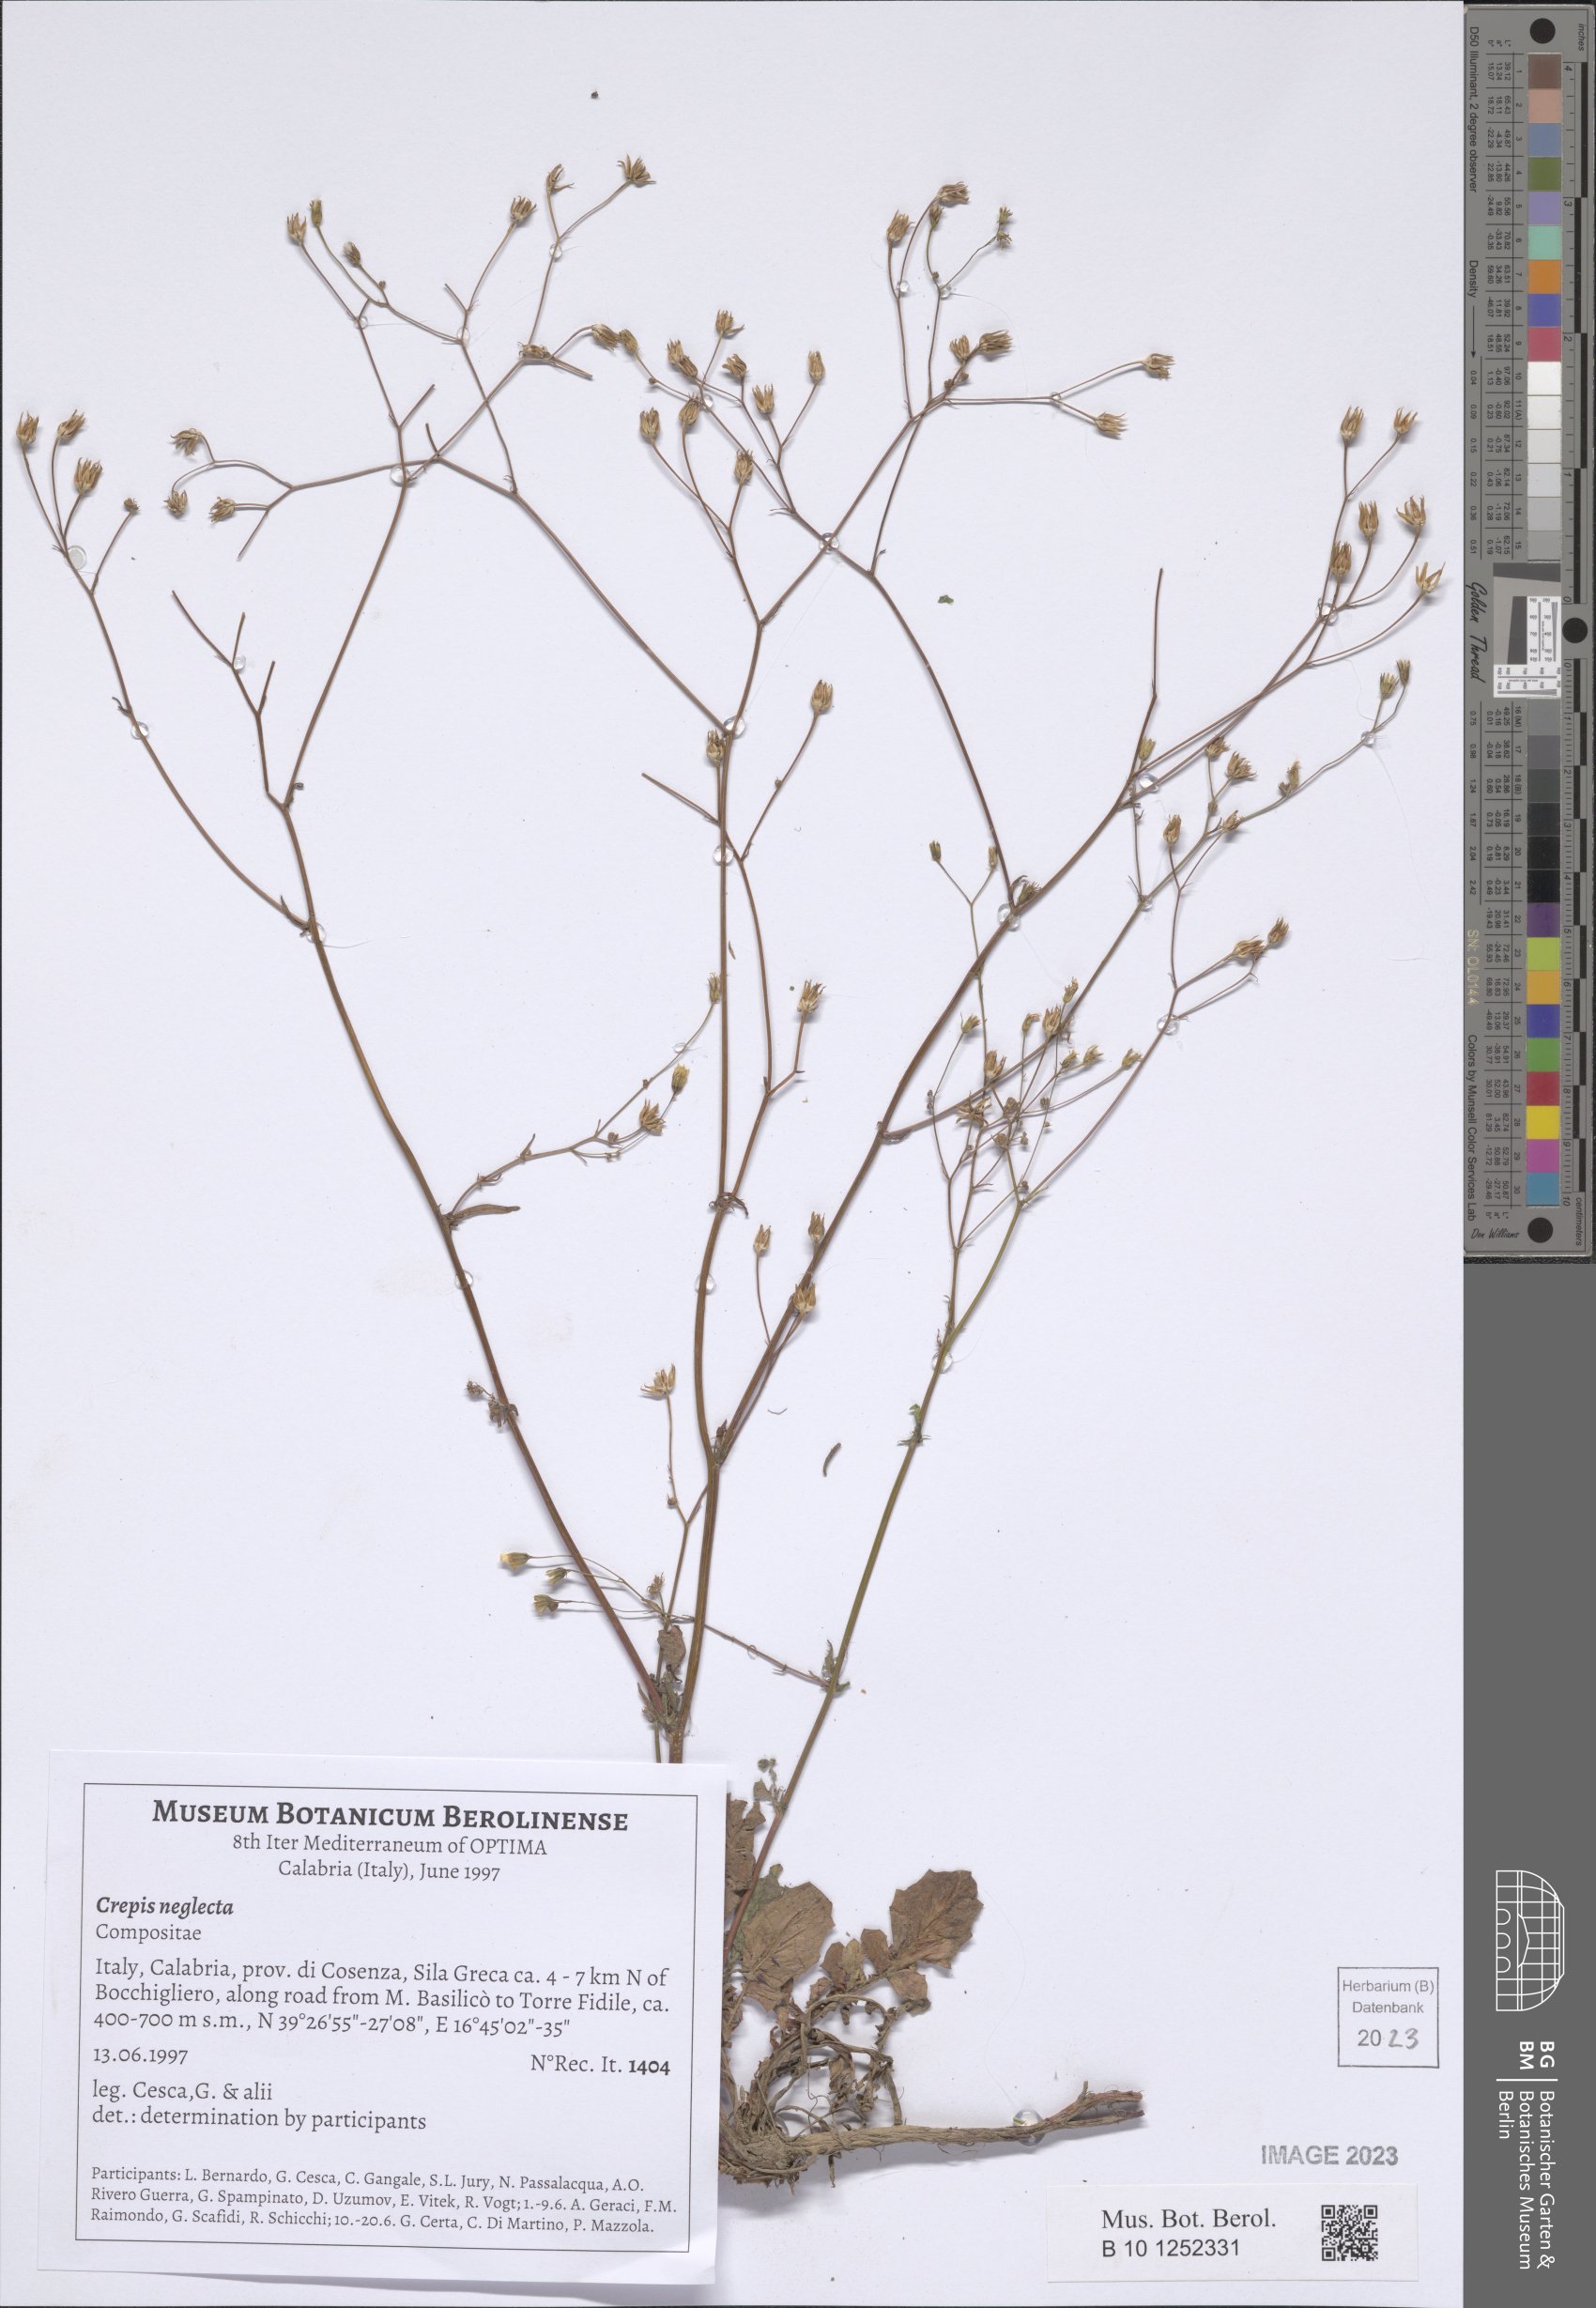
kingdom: Plantae
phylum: Tracheophyta
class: Magnoliopsida
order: Asterales
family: Asteraceae
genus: Crepis
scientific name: Crepis neglecta
